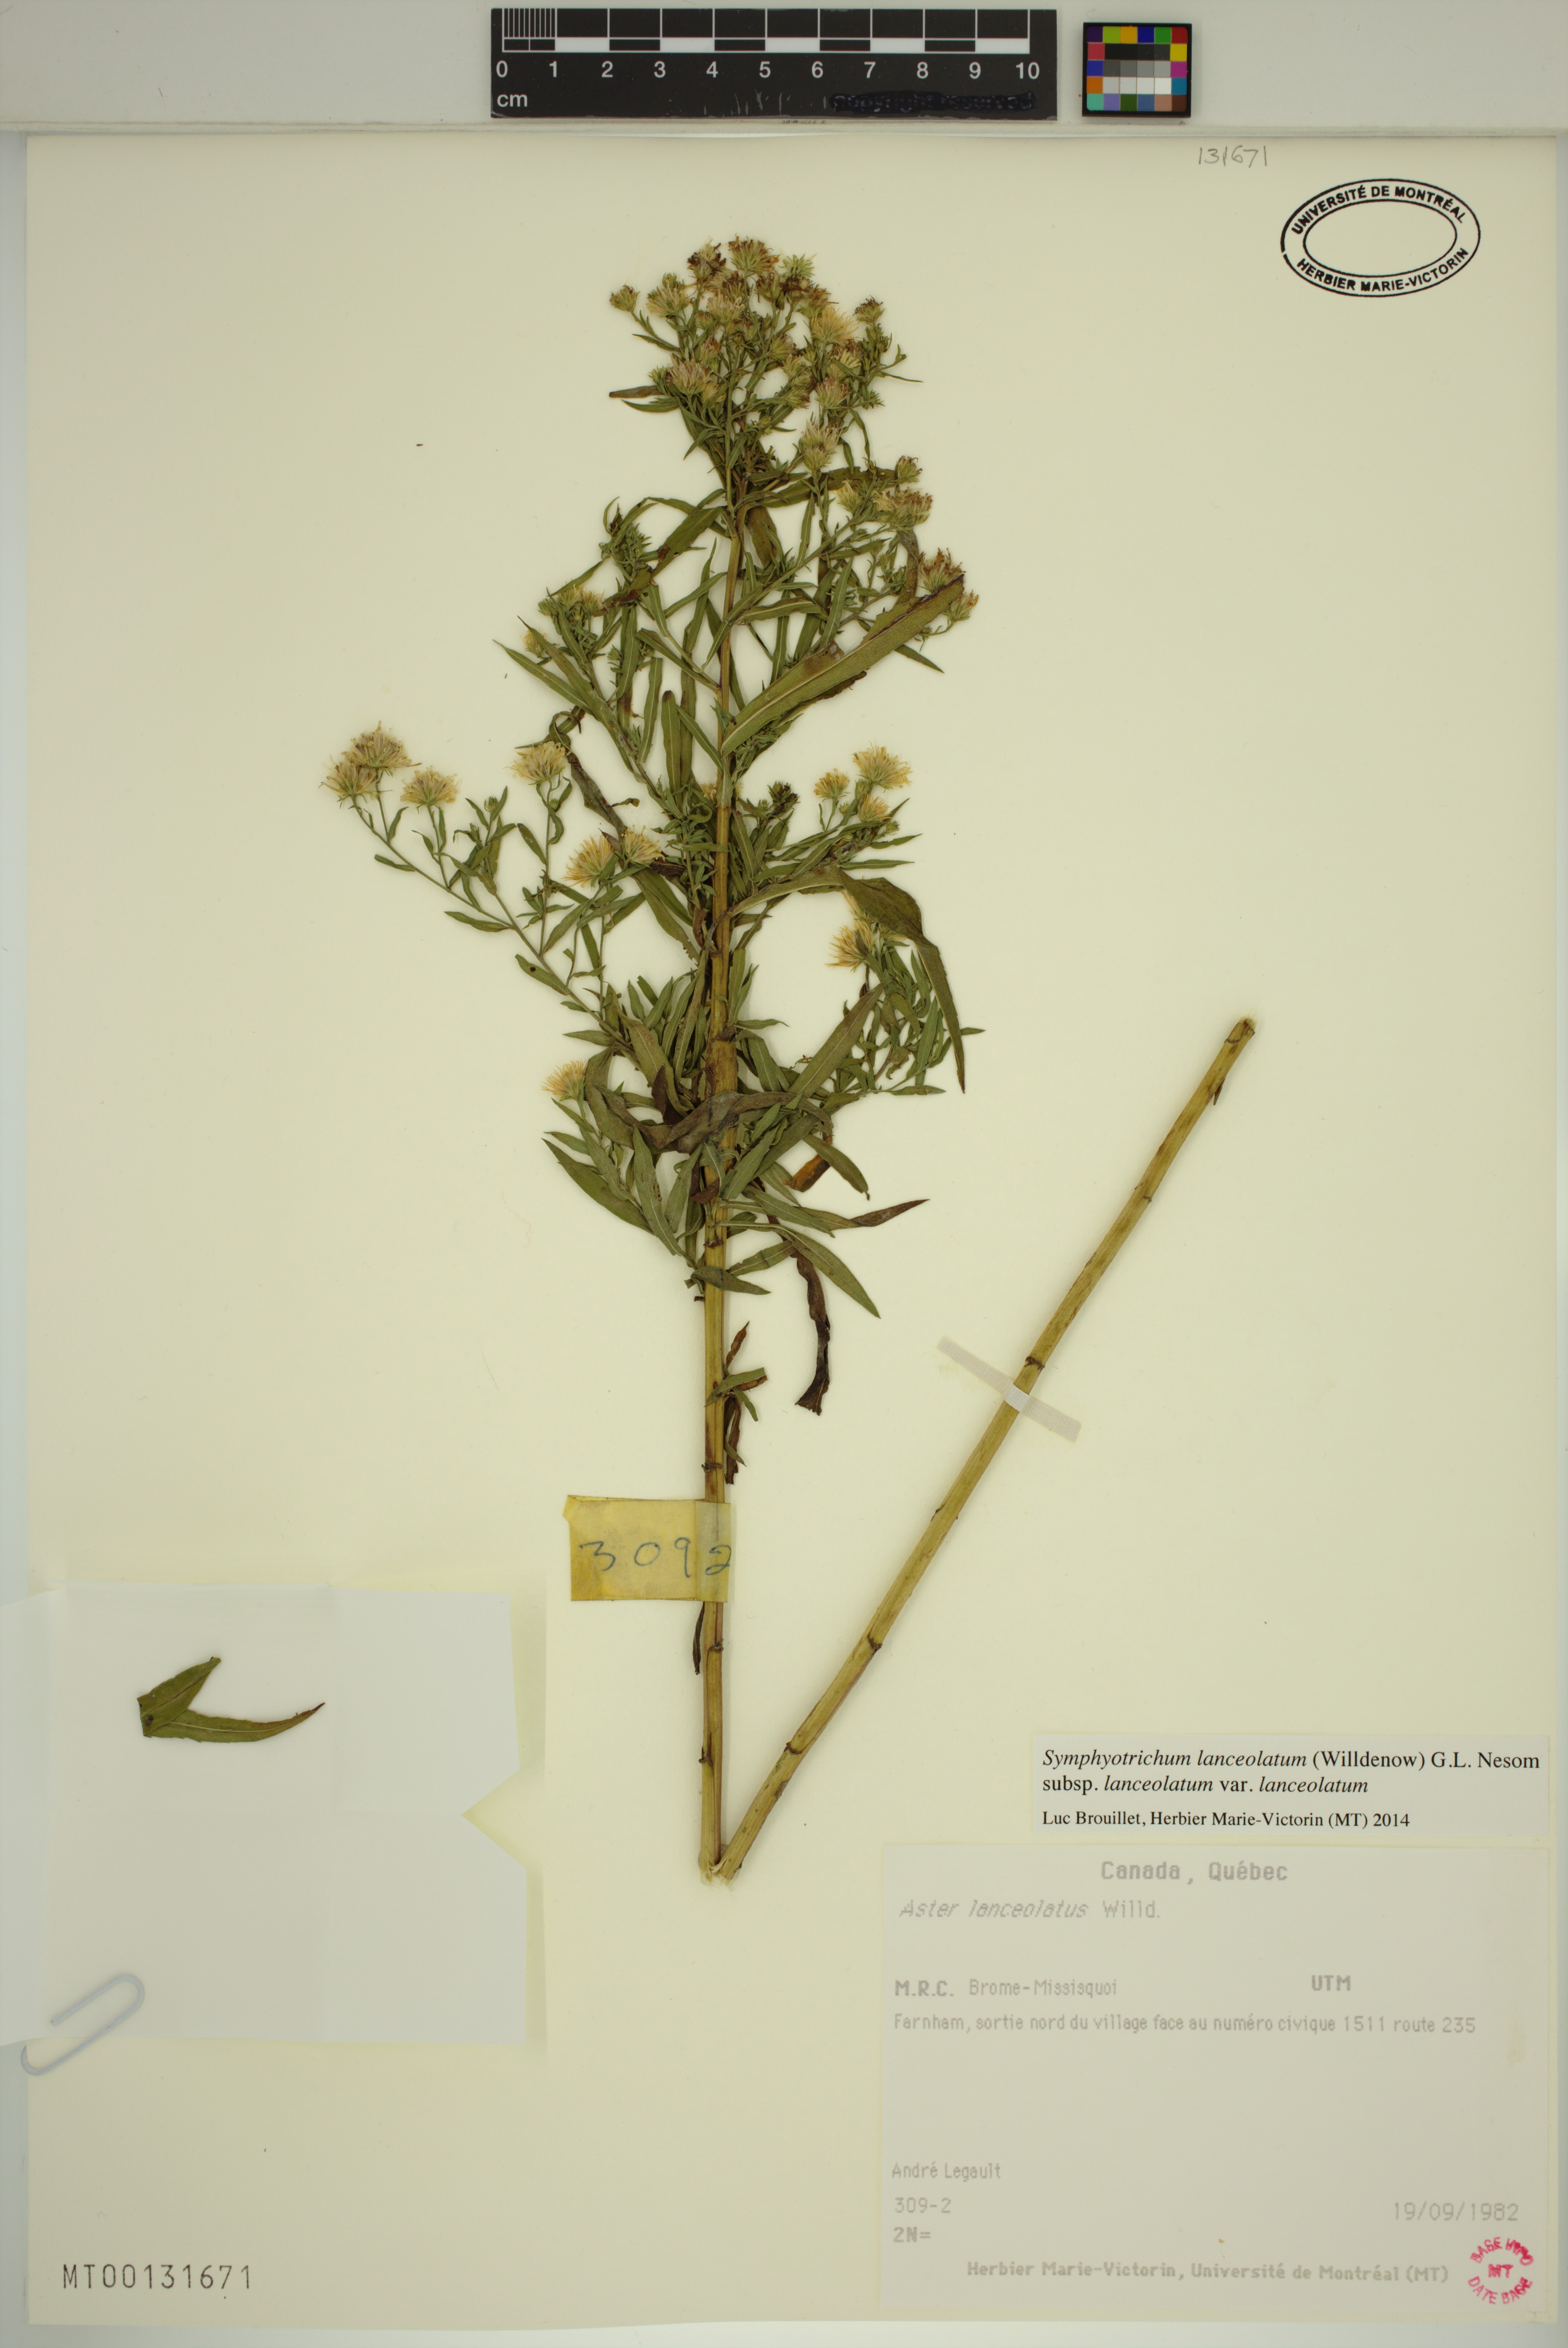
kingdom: Plantae
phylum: Tracheophyta
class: Magnoliopsida
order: Asterales
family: Asteraceae
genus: Symphyotrichum
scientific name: Symphyotrichum lanceolatum
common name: Panicled aster
